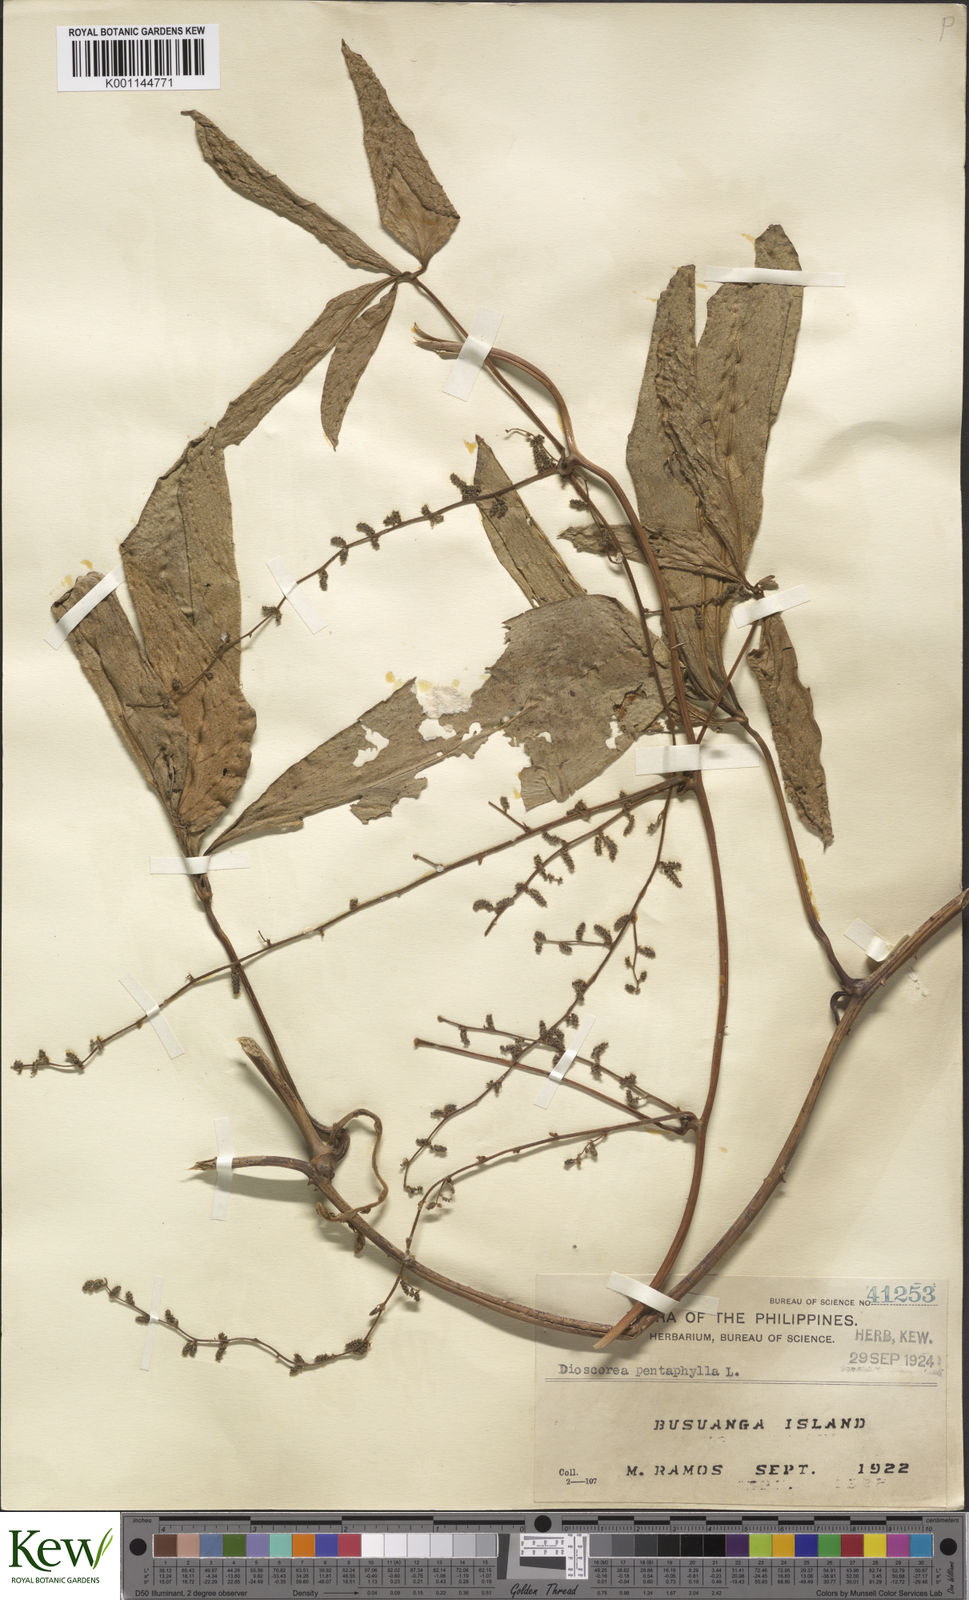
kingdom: Plantae
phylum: Tracheophyta
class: Liliopsida
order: Dioscoreales
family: Dioscoreaceae
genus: Dioscorea
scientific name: Dioscorea pentaphylla
